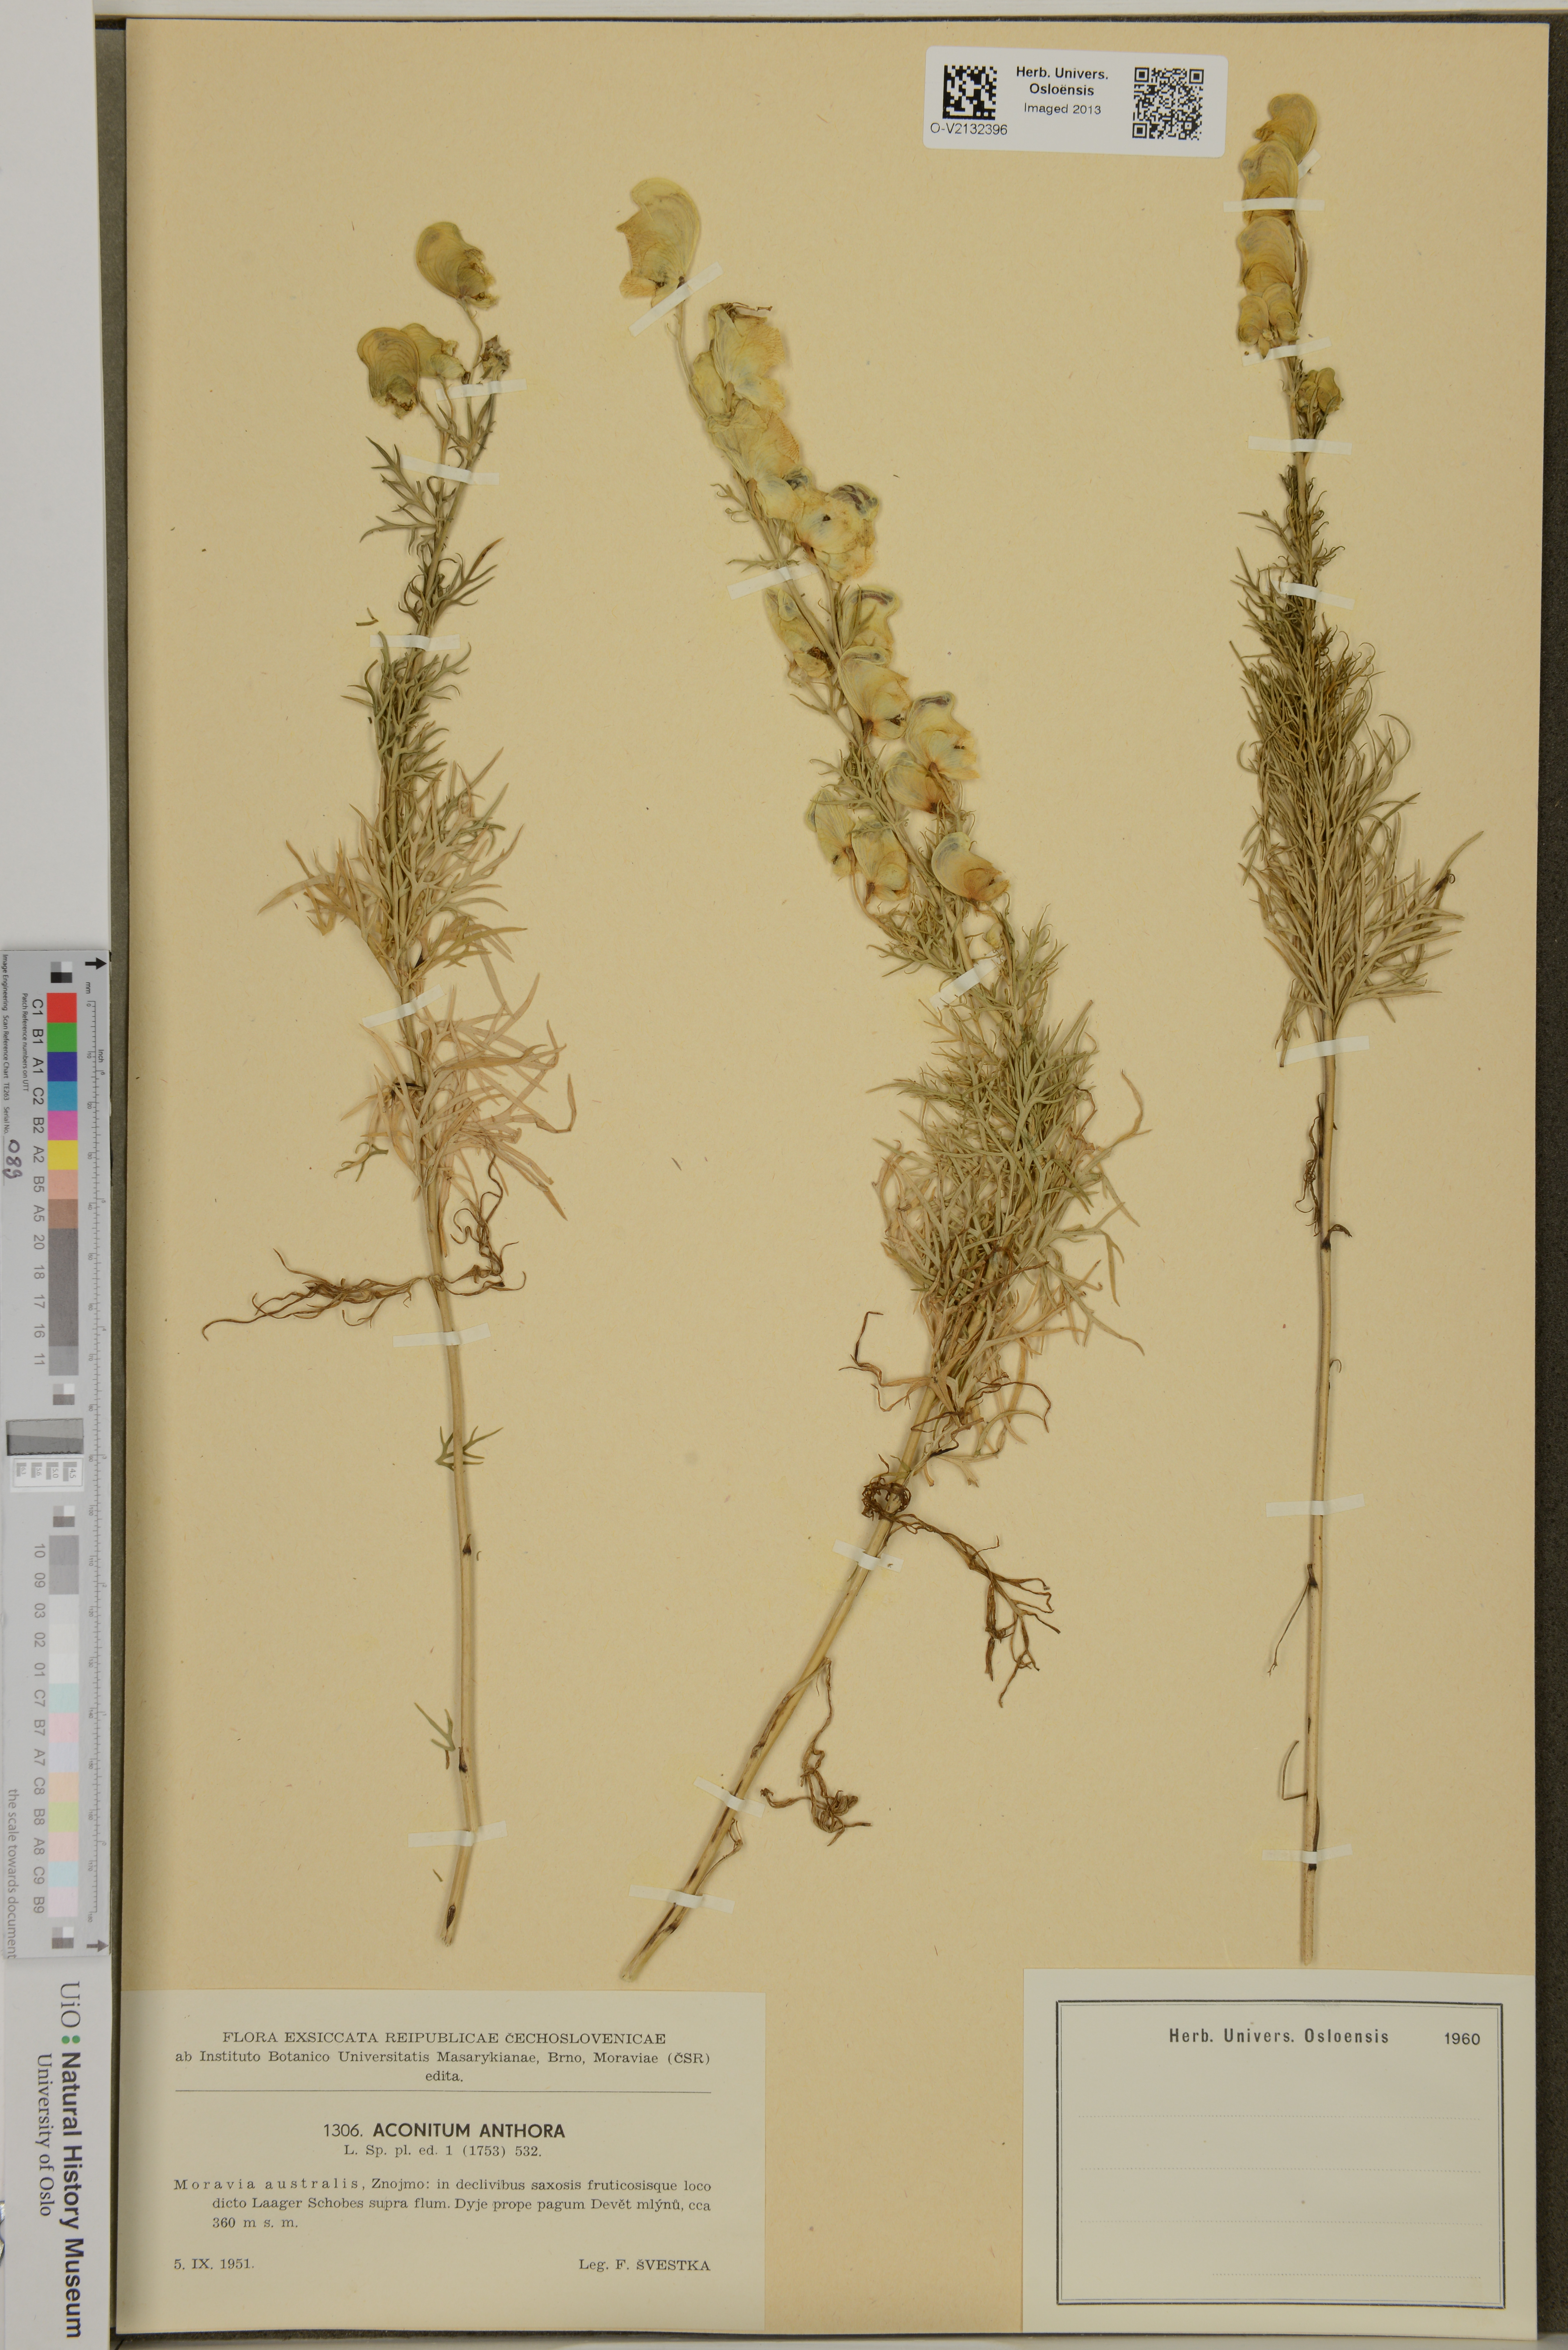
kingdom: Plantae
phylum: Tracheophyta
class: Magnoliopsida
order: Ranunculales
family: Ranunculaceae
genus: Aconitum
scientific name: Aconitum anthora
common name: Yellow monkshood
